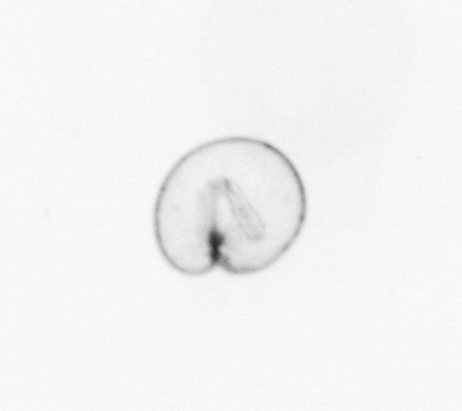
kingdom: Chromista
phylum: Myzozoa
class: Dinophyceae
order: Noctilucales
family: Noctilucaceae
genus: Noctiluca
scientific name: Noctiluca scintillans
